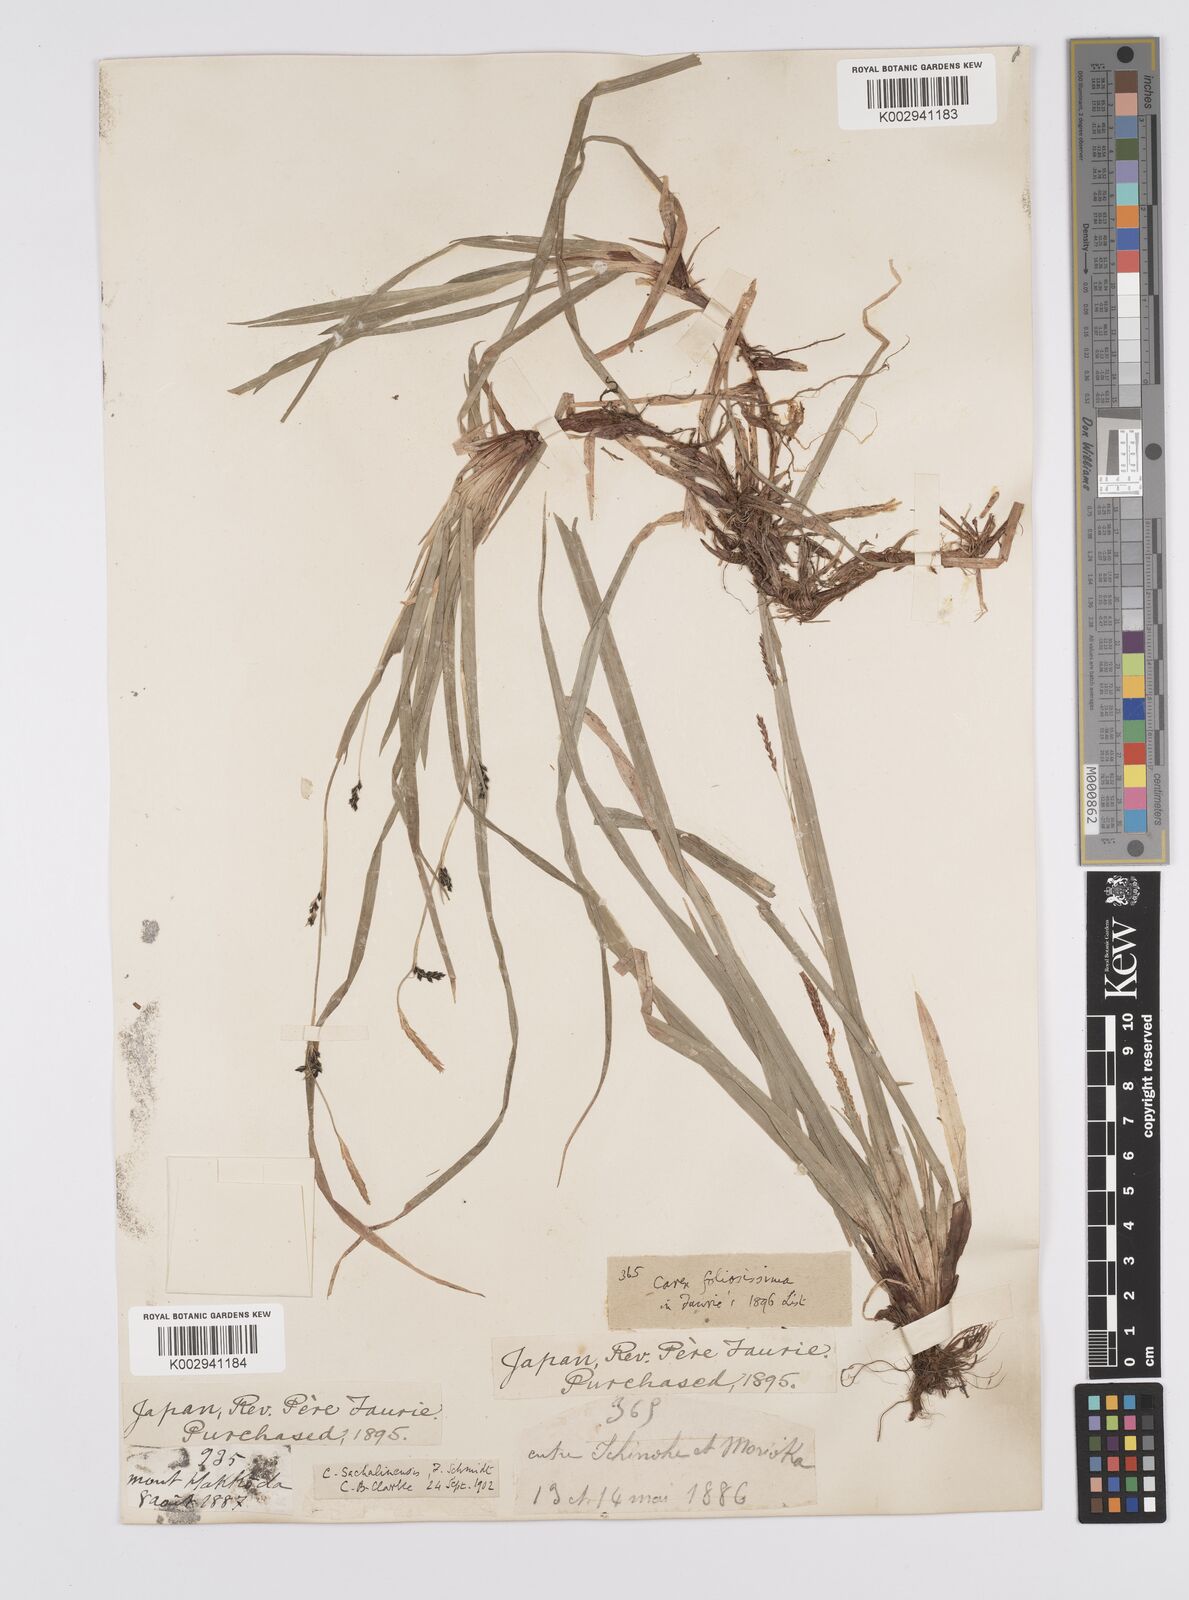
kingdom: Plantae
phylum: Tracheophyta
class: Liliopsida
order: Poales
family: Cyperaceae
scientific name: Cyperaceae
